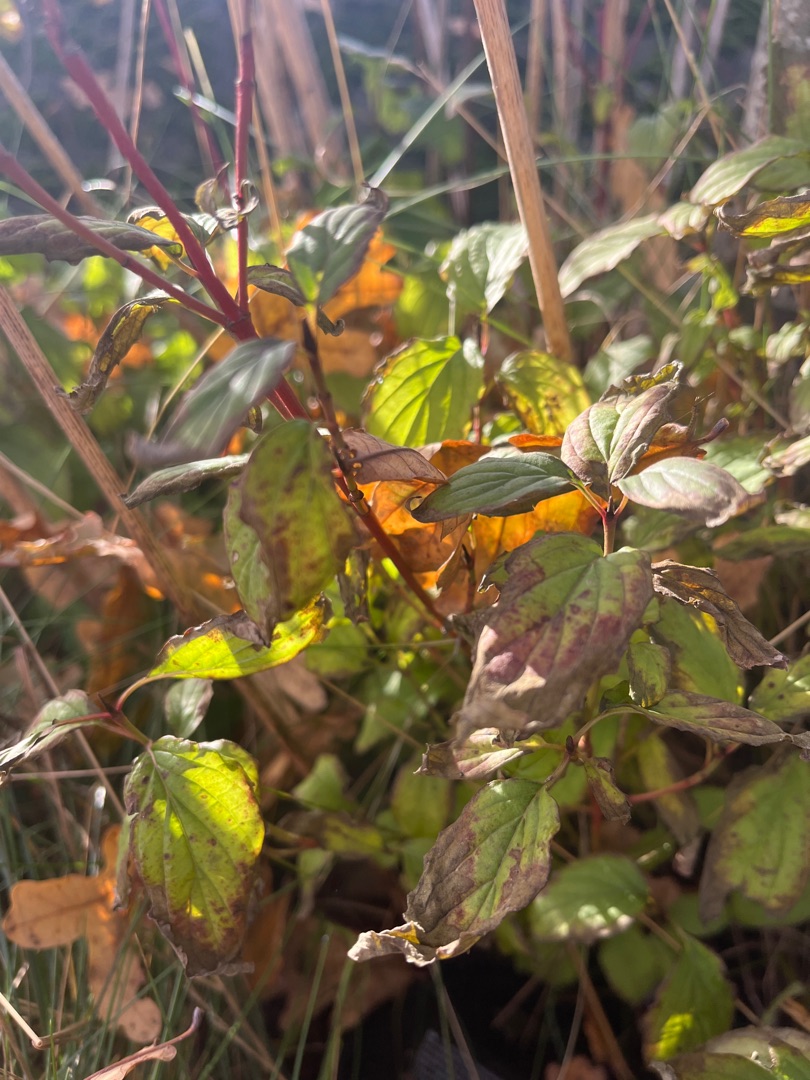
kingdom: Plantae
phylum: Tracheophyta
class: Magnoliopsida
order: Cornales
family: Cornaceae
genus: Cornus
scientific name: Cornus sanguinea
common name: Rød kornel
